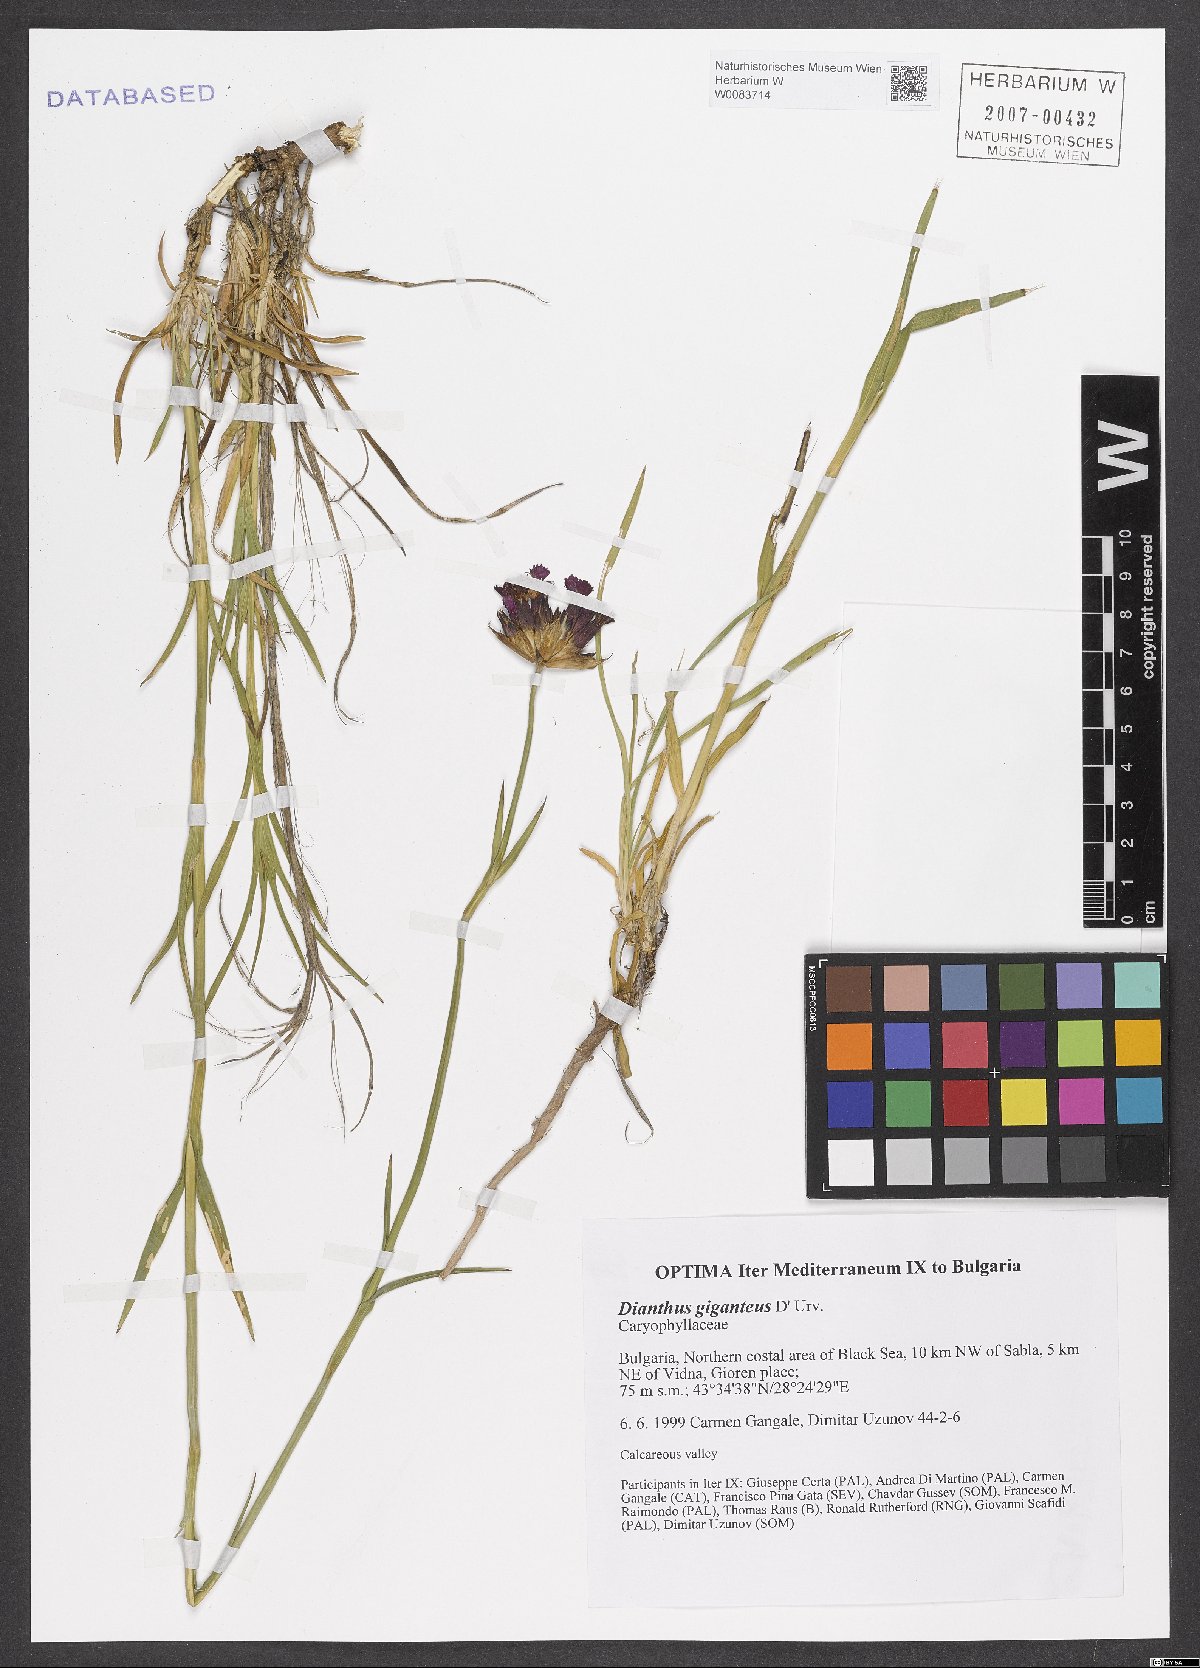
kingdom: Plantae
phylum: Tracheophyta
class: Magnoliopsida
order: Caryophyllales
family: Caryophyllaceae
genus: Dianthus
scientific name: Dianthus giganteus
